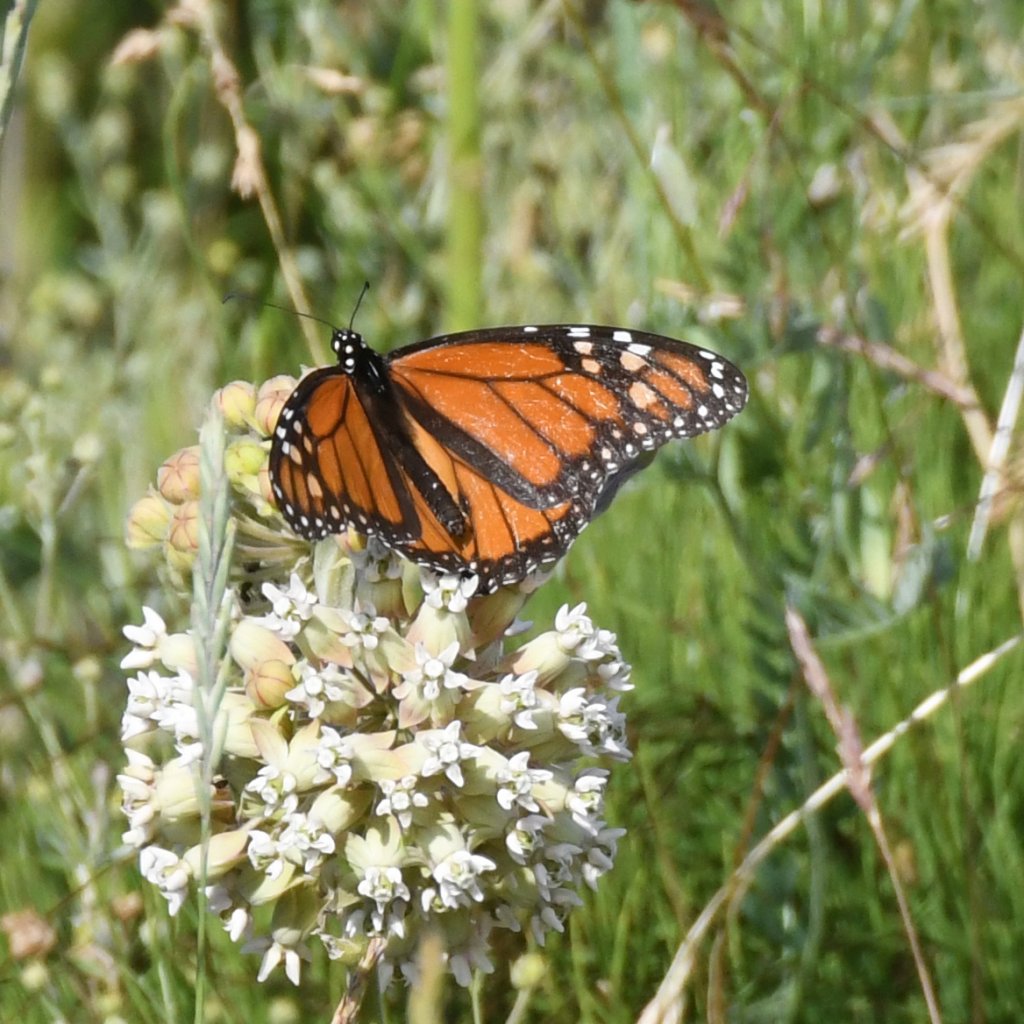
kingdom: Animalia
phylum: Arthropoda
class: Insecta
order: Lepidoptera
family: Nymphalidae
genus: Danaus
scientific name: Danaus plexippus
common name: Monarch
